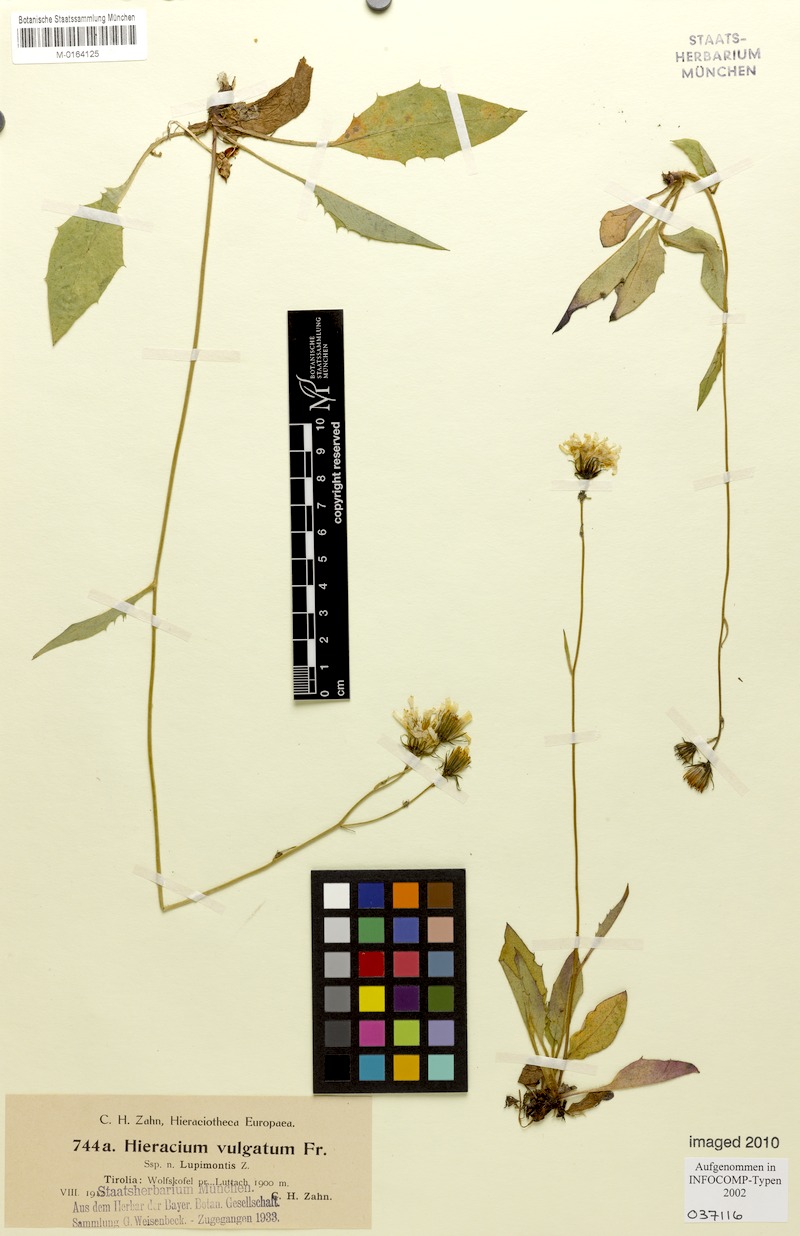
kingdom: Plantae
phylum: Tracheophyta
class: Magnoliopsida
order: Asterales
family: Asteraceae
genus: Hieracium
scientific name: Hieracium lachenalii
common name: Common hawkweed
